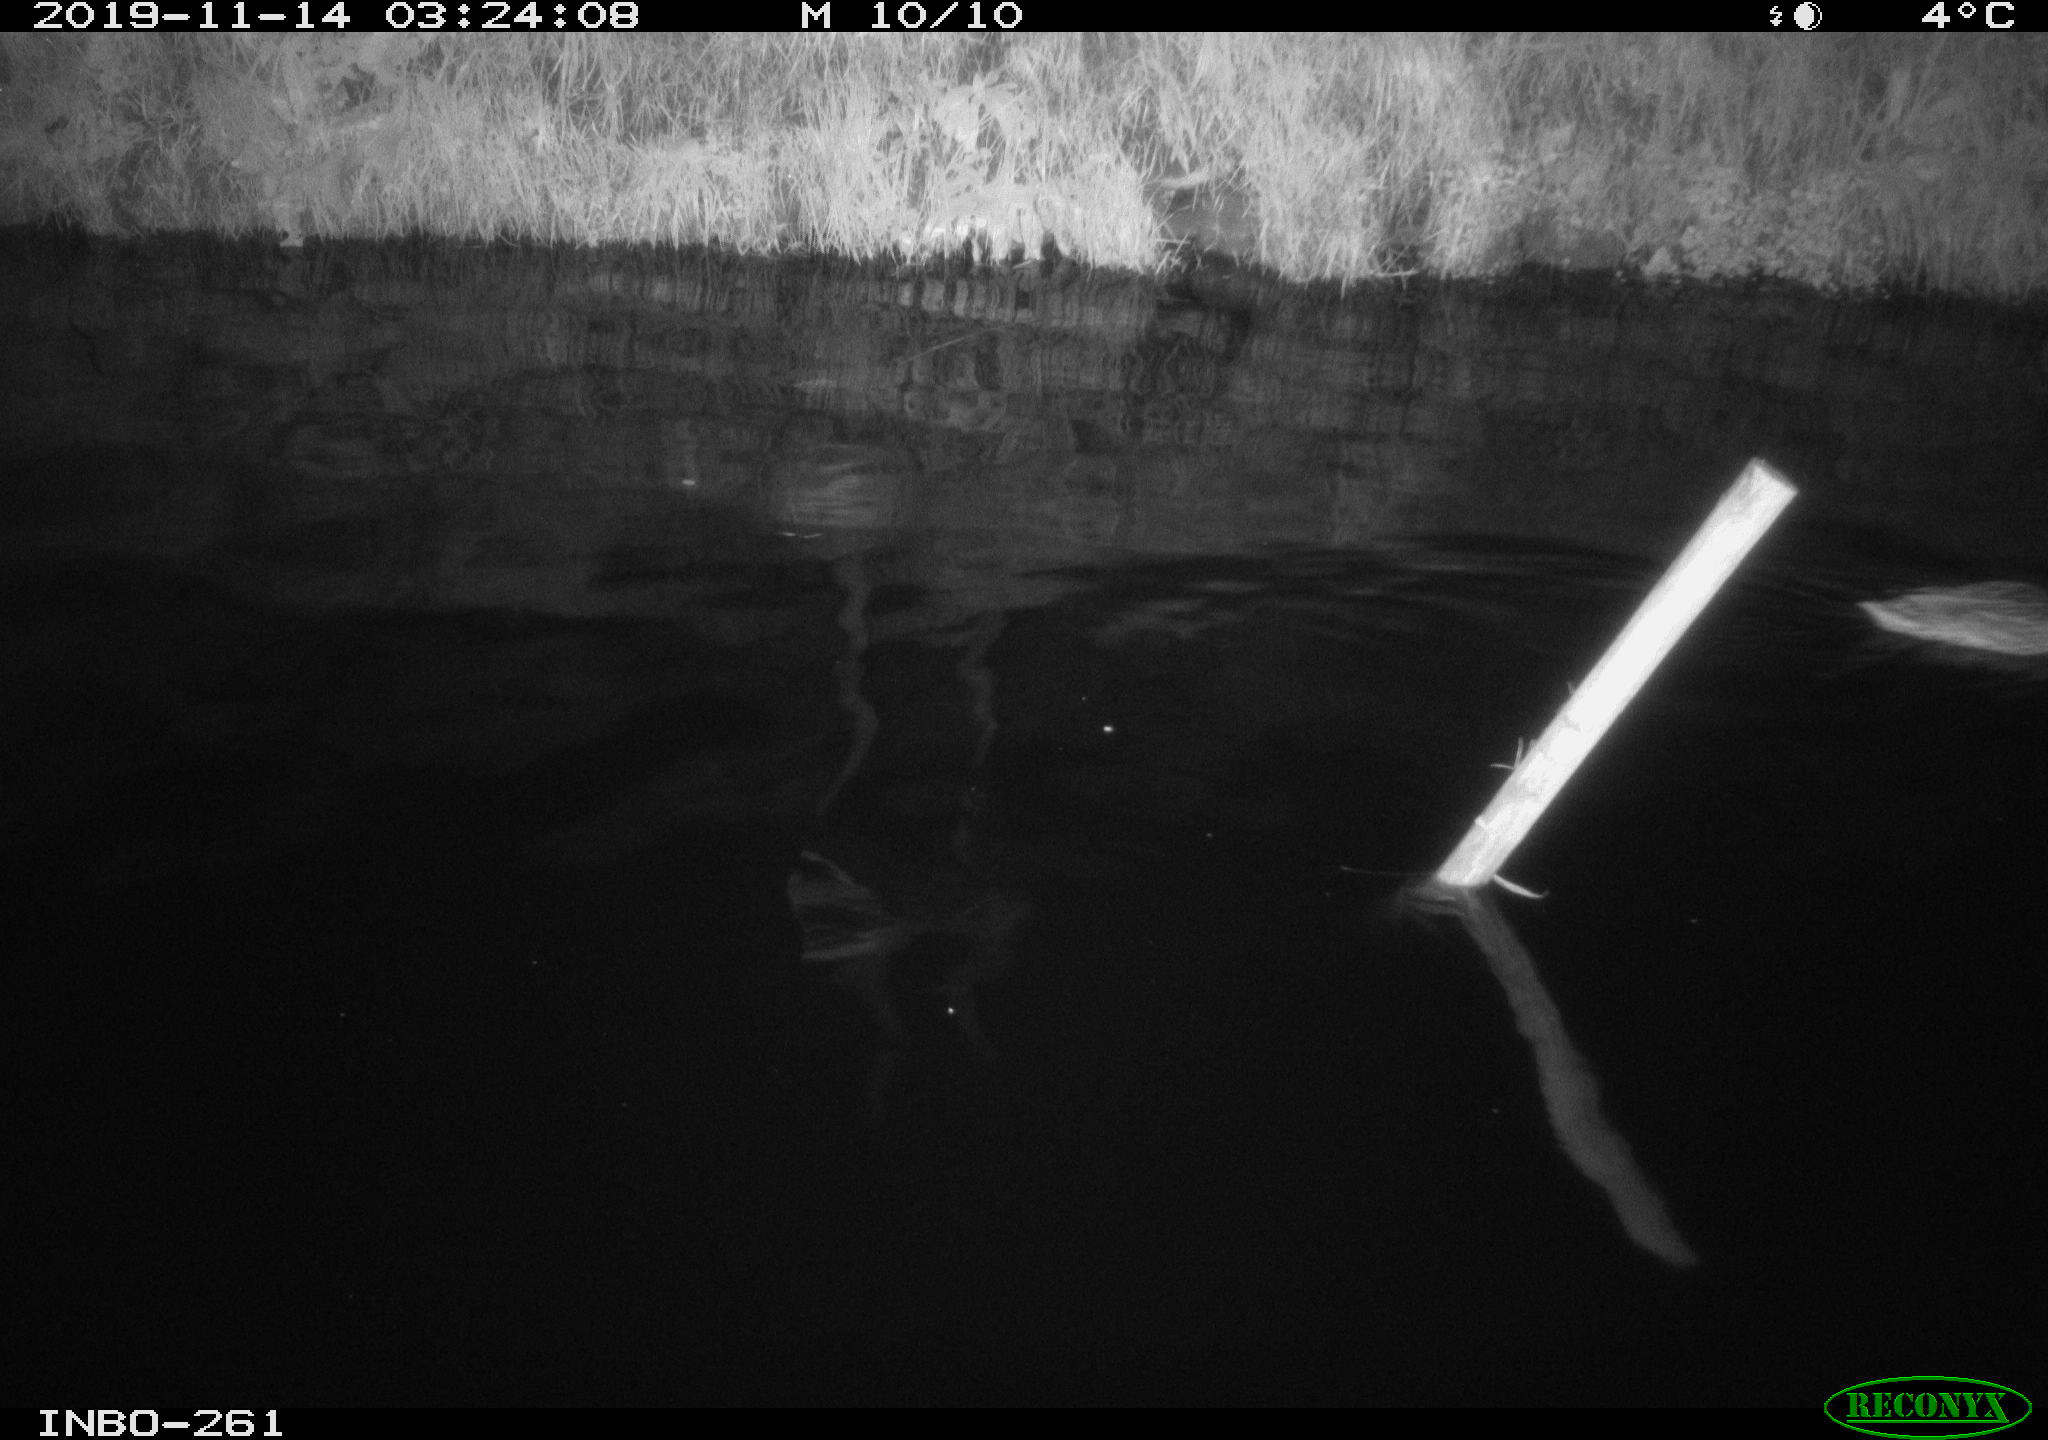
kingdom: Animalia
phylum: Chordata
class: Aves
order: Anseriformes
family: Anatidae
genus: Anas
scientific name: Anas platyrhynchos
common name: Mallard
